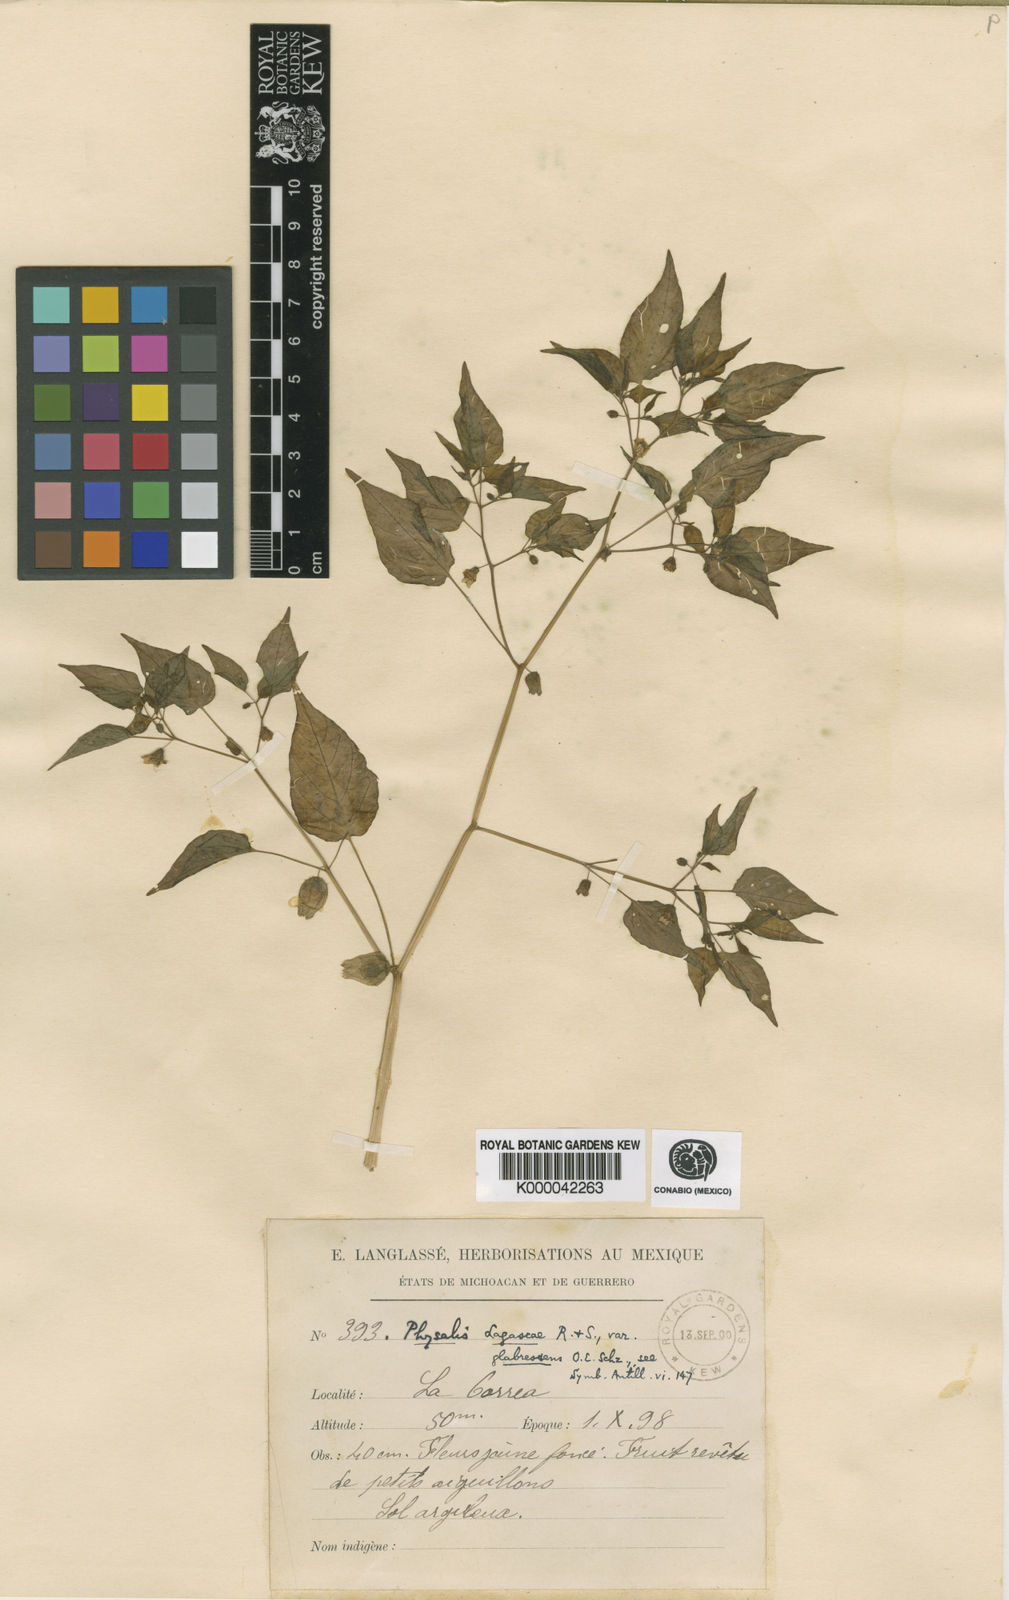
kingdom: Plantae
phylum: Tracheophyta
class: Magnoliopsida
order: Solanales
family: Solanaceae
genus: Physalis
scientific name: Physalis lagascae
